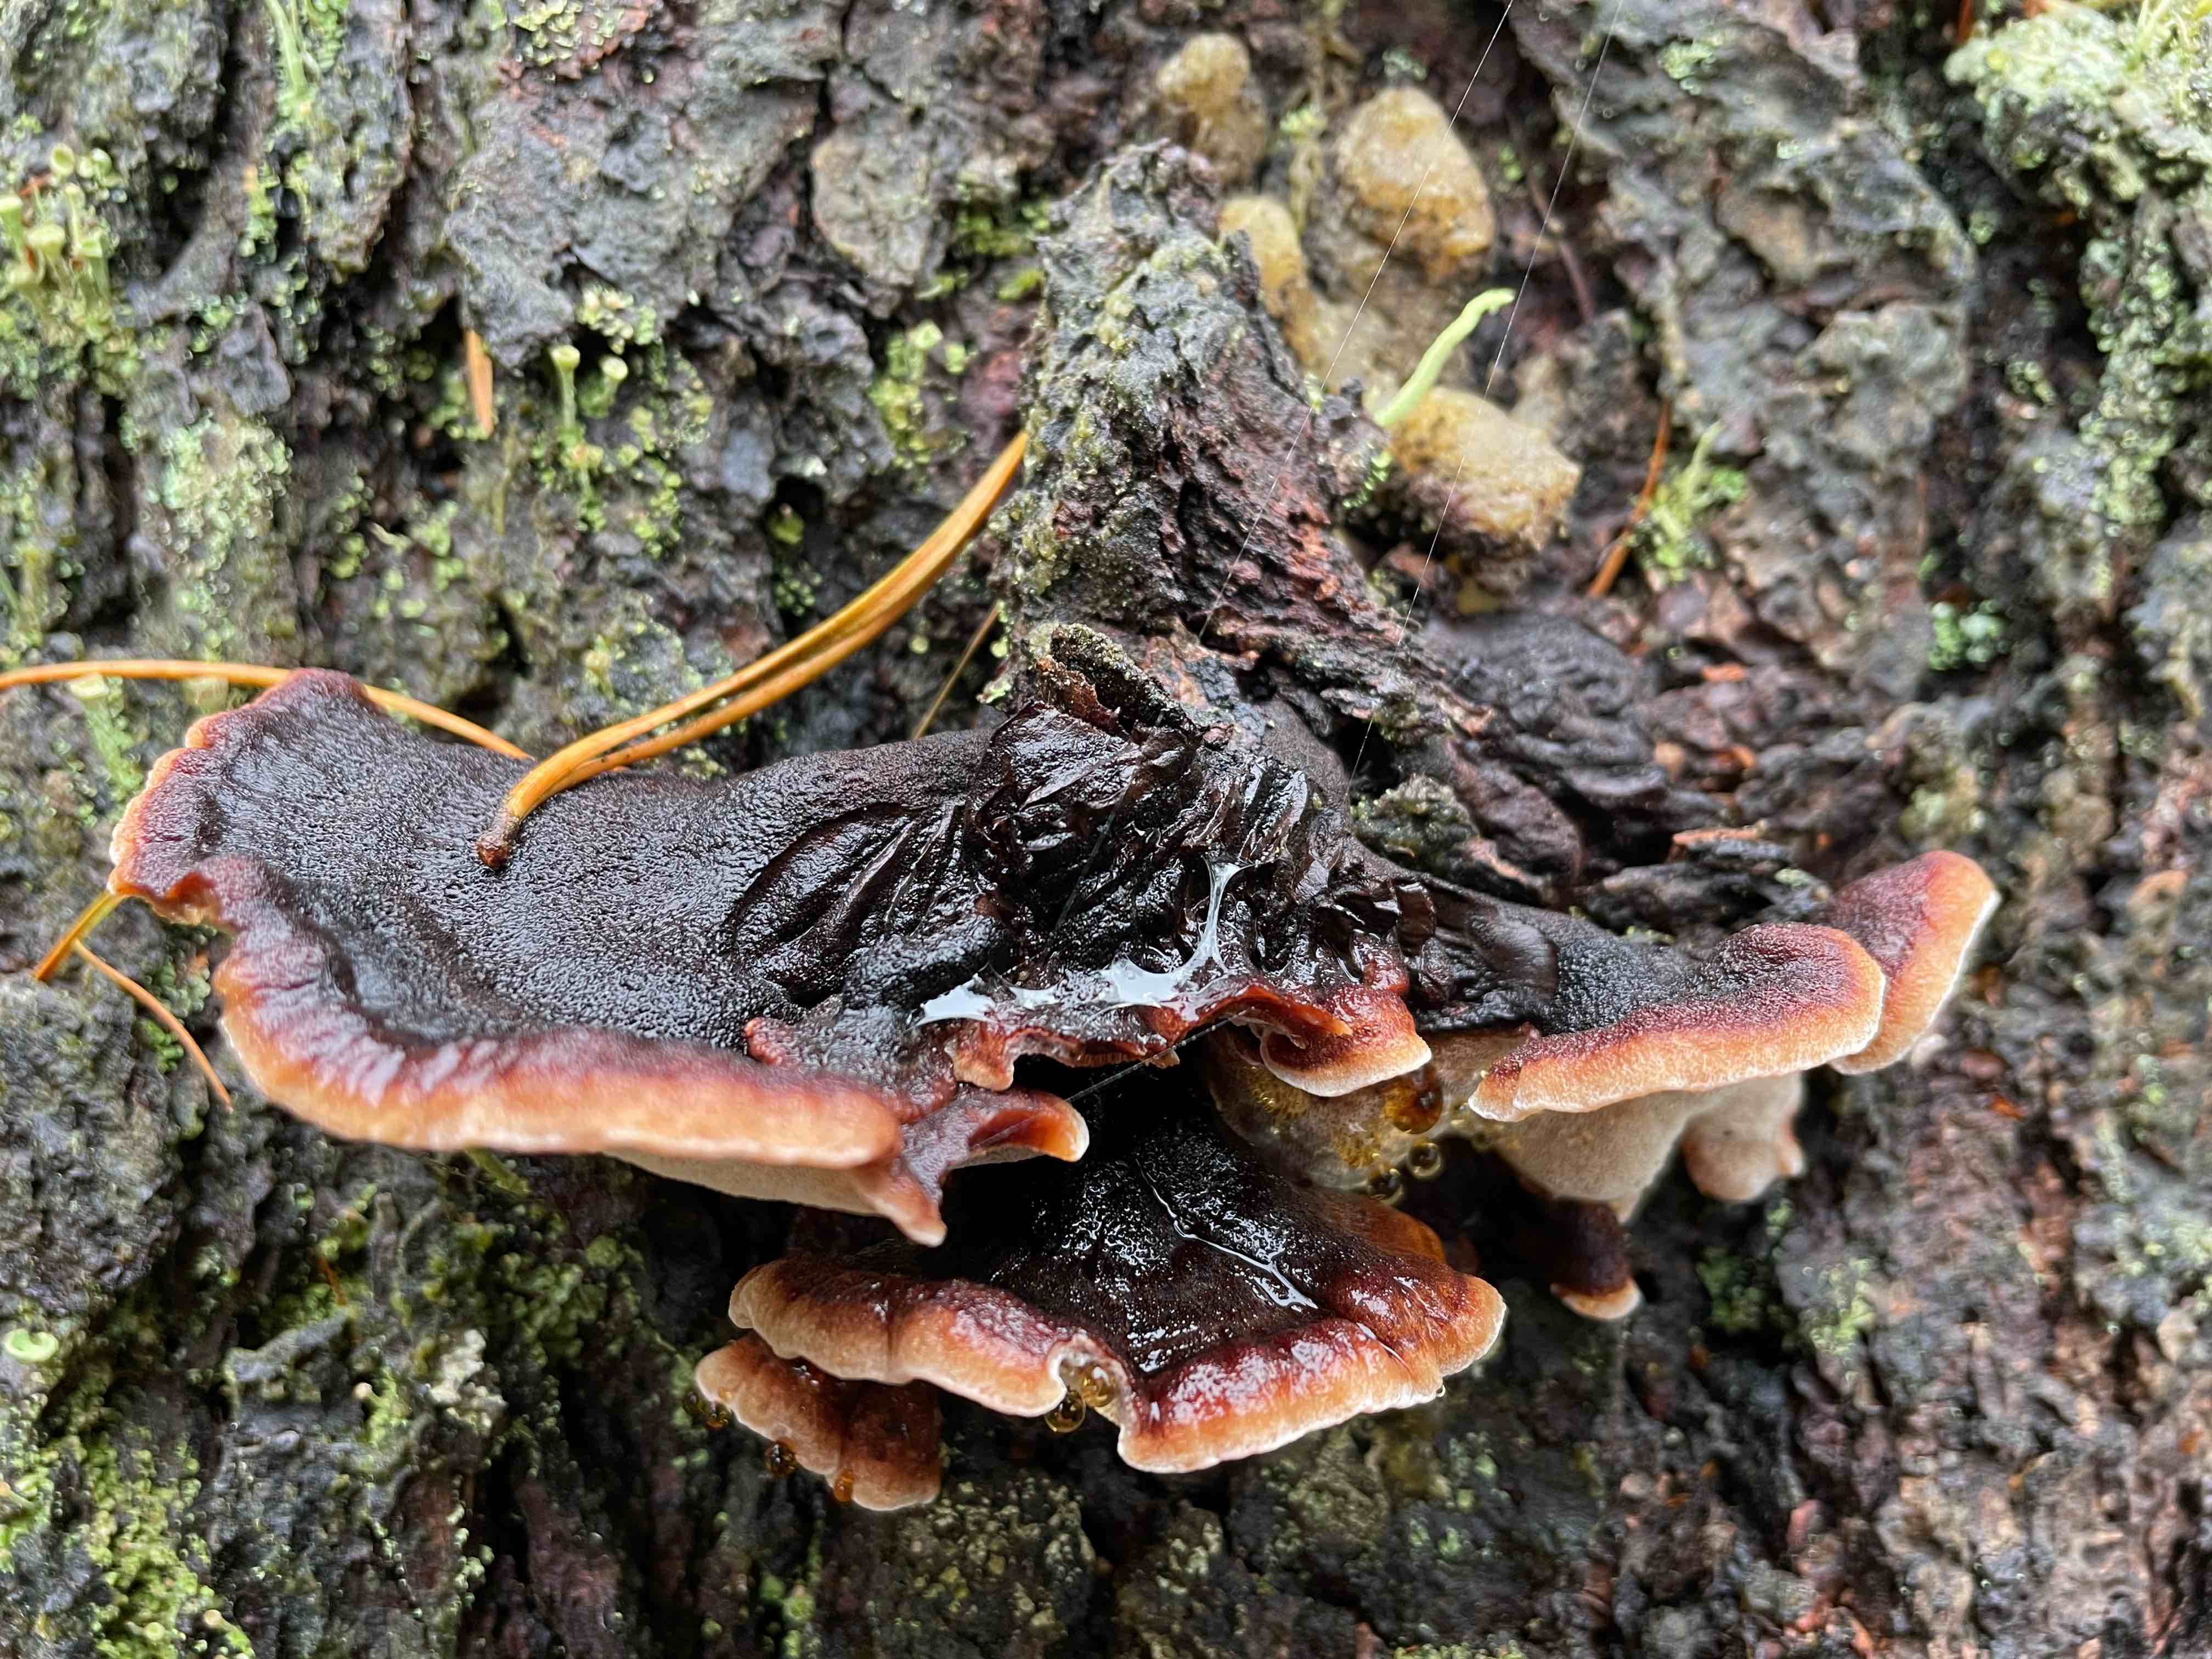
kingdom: Fungi
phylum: Basidiomycota
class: Agaricomycetes
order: Polyporales
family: Ischnodermataceae
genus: Ischnoderma
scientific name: Ischnoderma benzoinum
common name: gran-tjæreporesvamp
